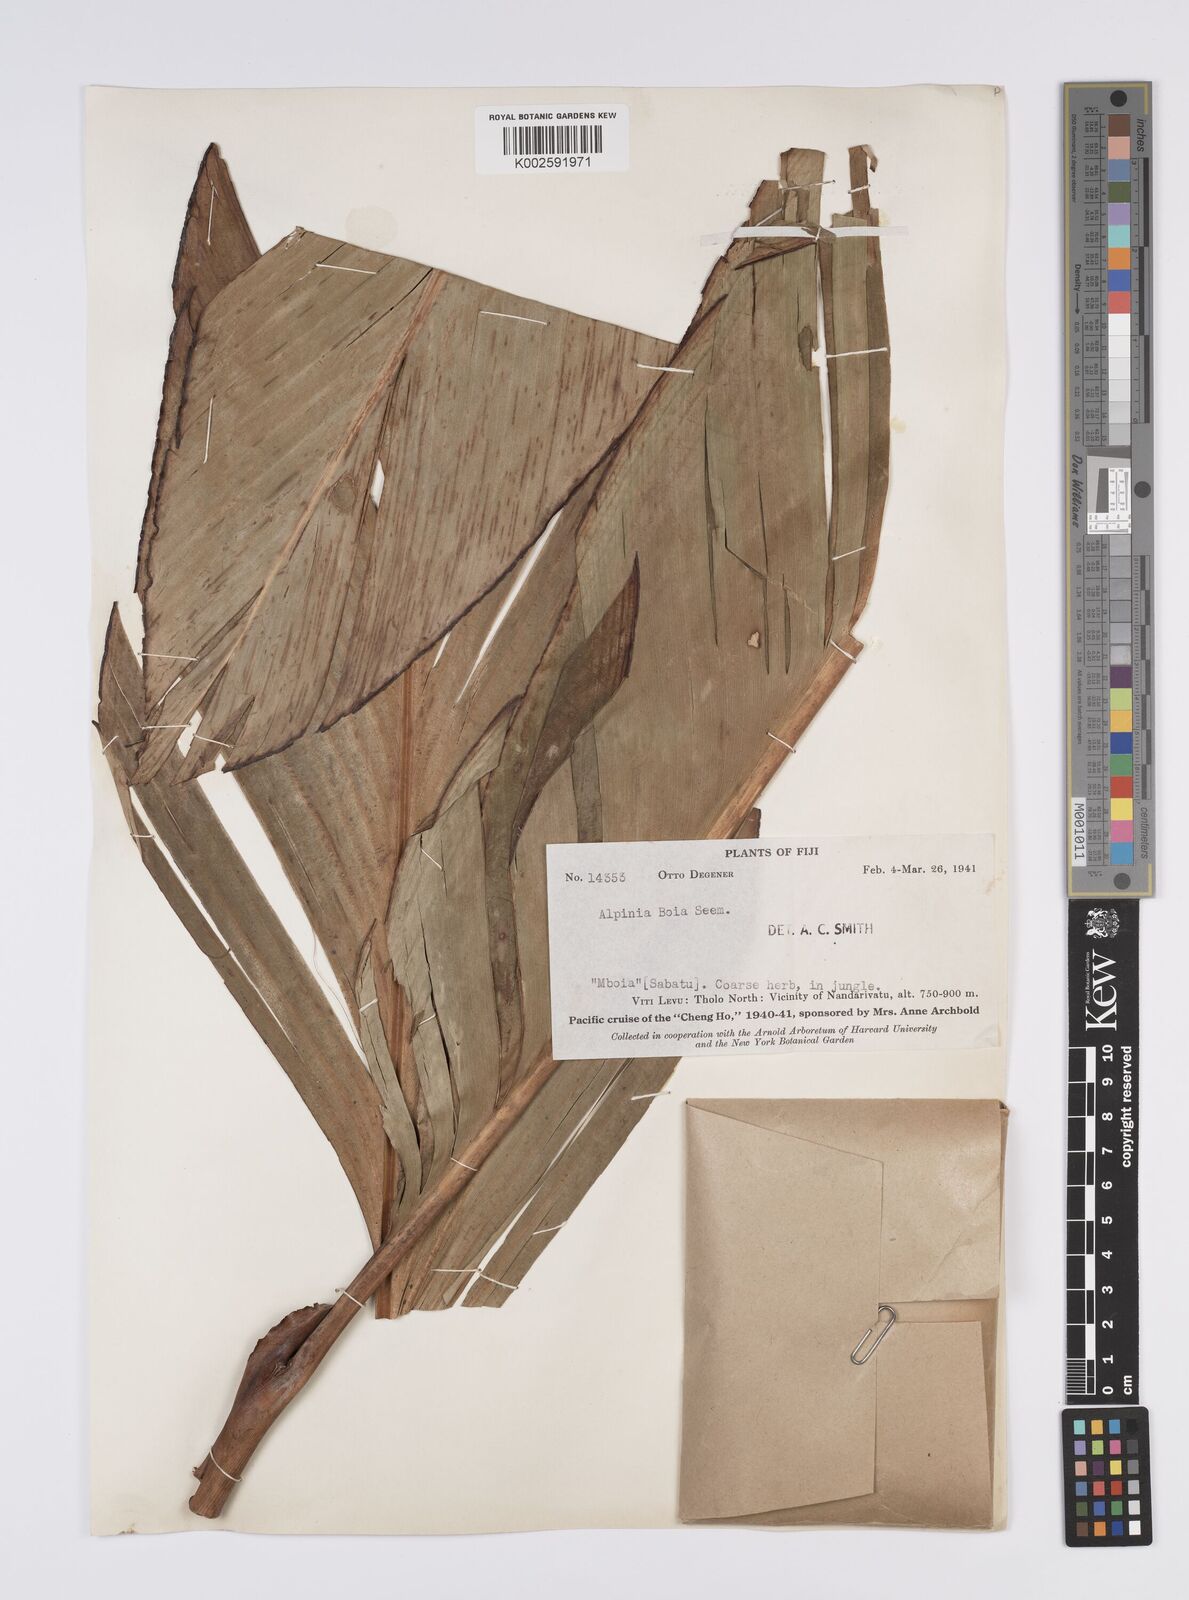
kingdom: Plantae
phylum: Tracheophyta
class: Liliopsida
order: Zingiberales
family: Zingiberaceae
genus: Alpinia
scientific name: Alpinia boia
